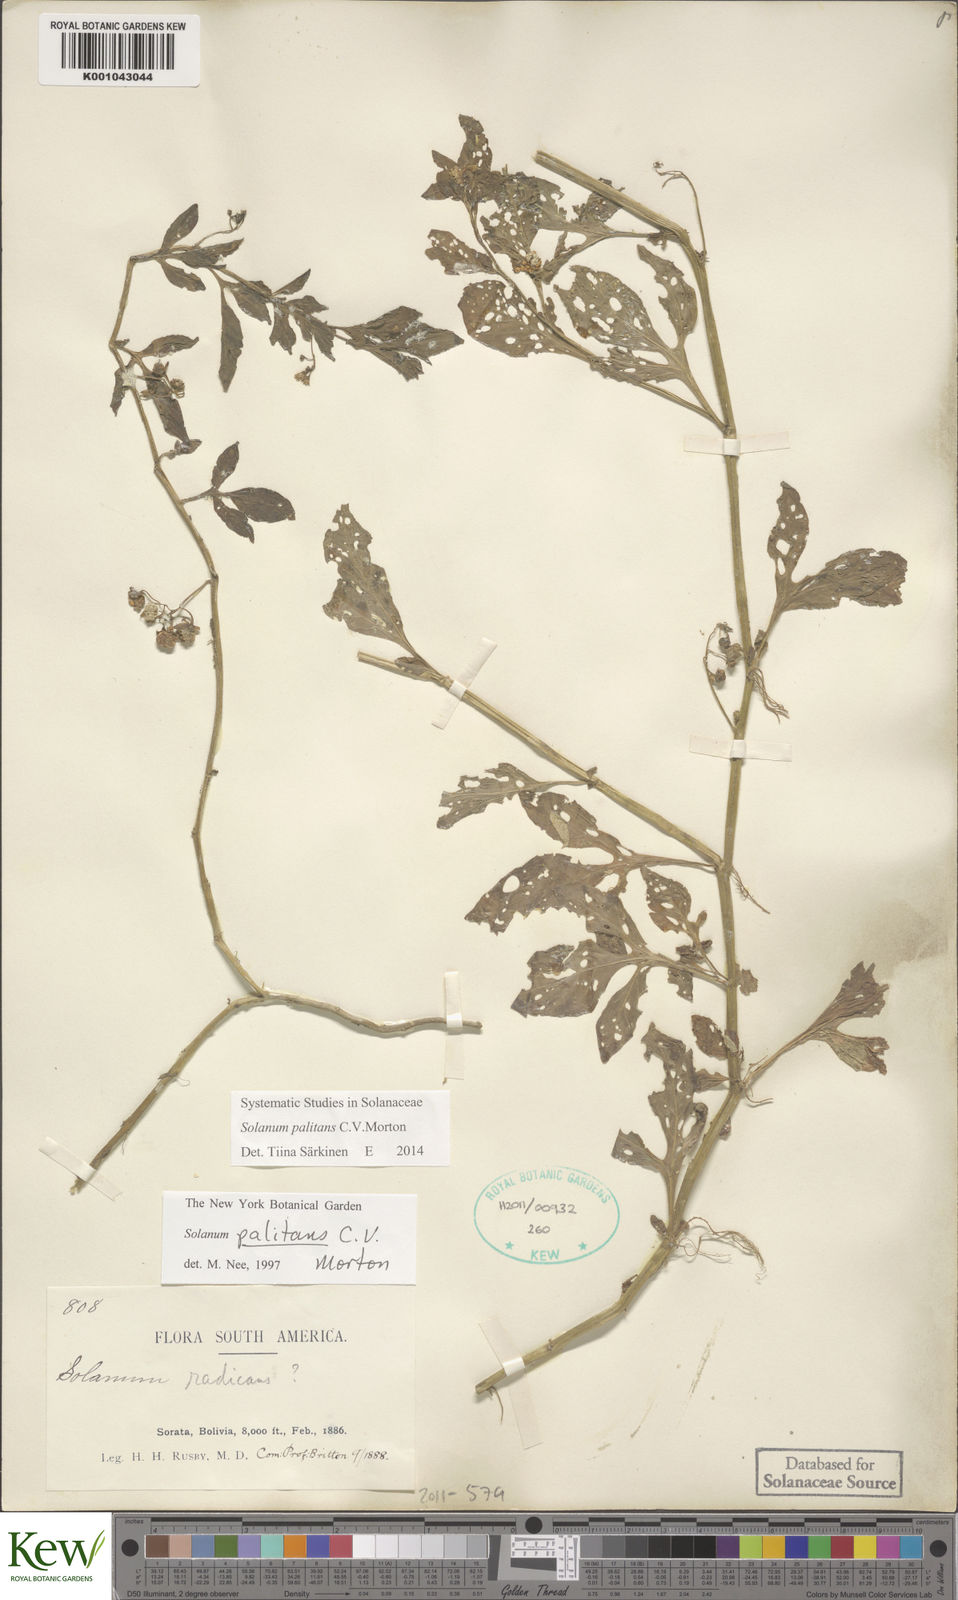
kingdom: Plantae
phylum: Tracheophyta
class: Magnoliopsida
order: Solanales
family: Solanaceae
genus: Solanum
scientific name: Solanum palitans
